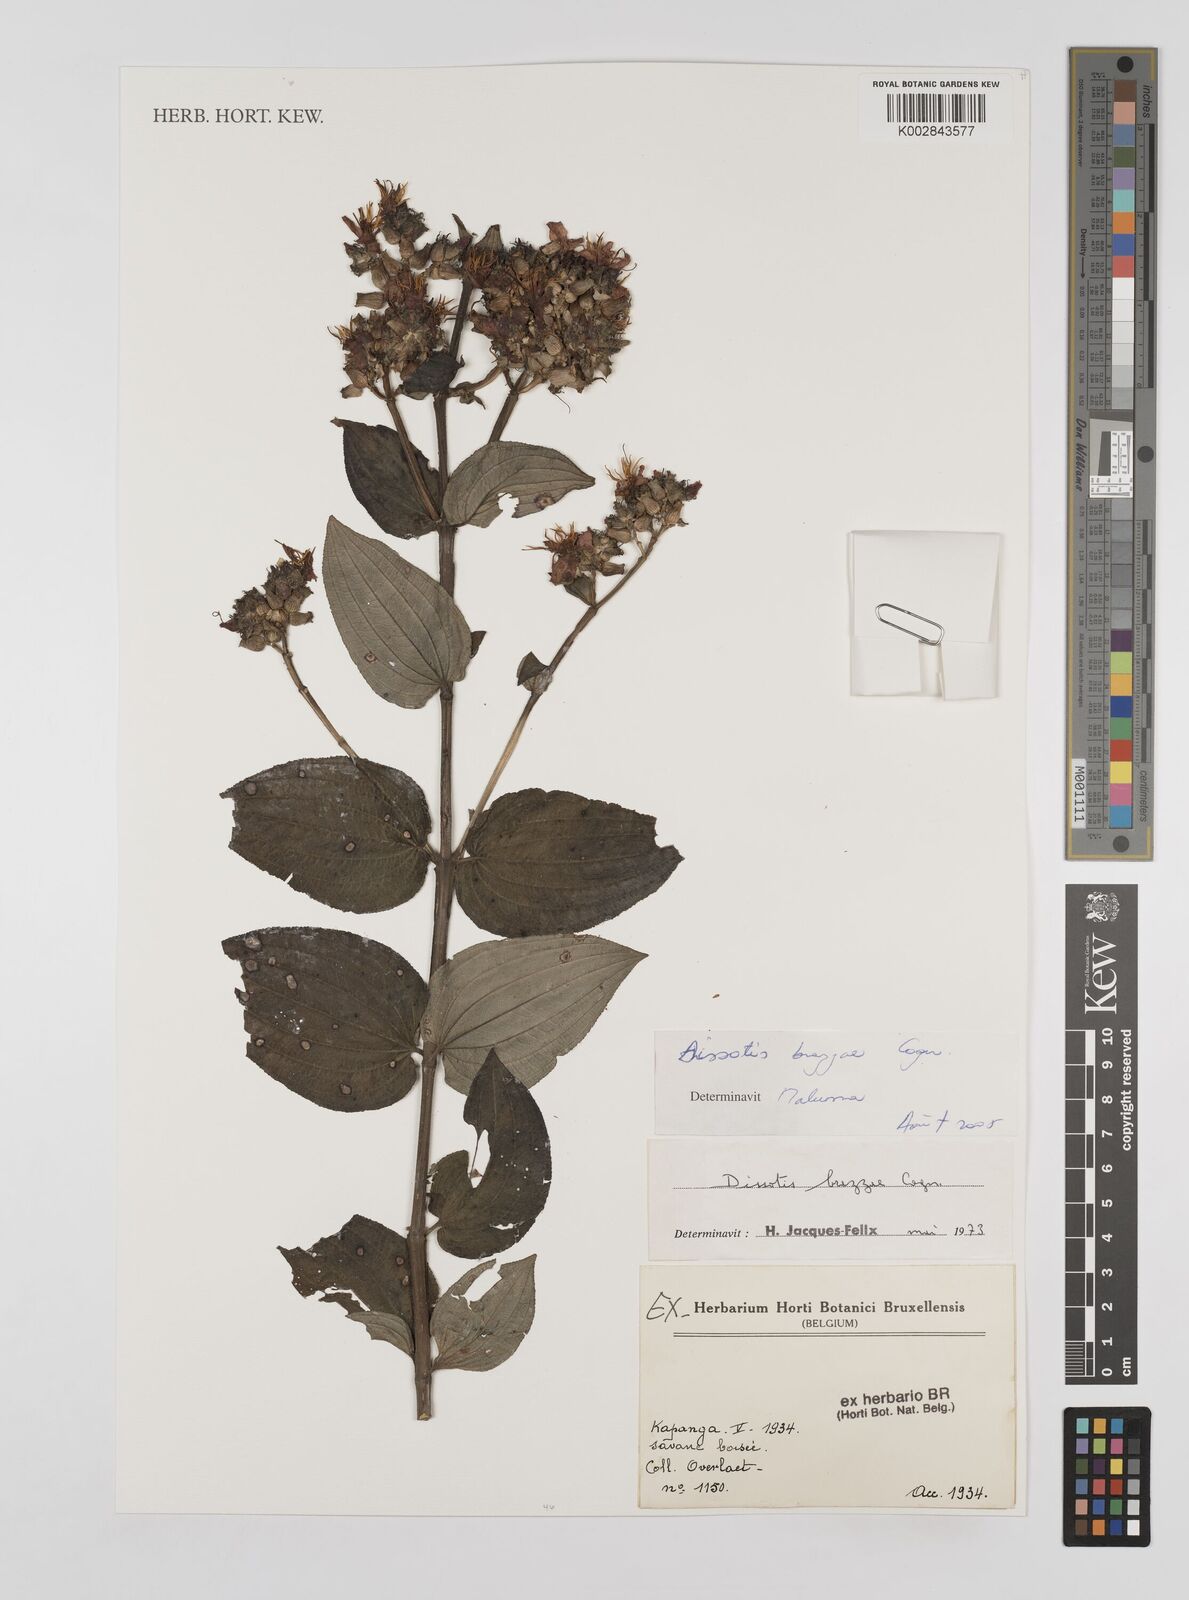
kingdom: Plantae
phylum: Tracheophyta
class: Magnoliopsida
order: Myrtales
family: Melastomataceae
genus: Dupineta
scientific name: Dupineta brazzae
